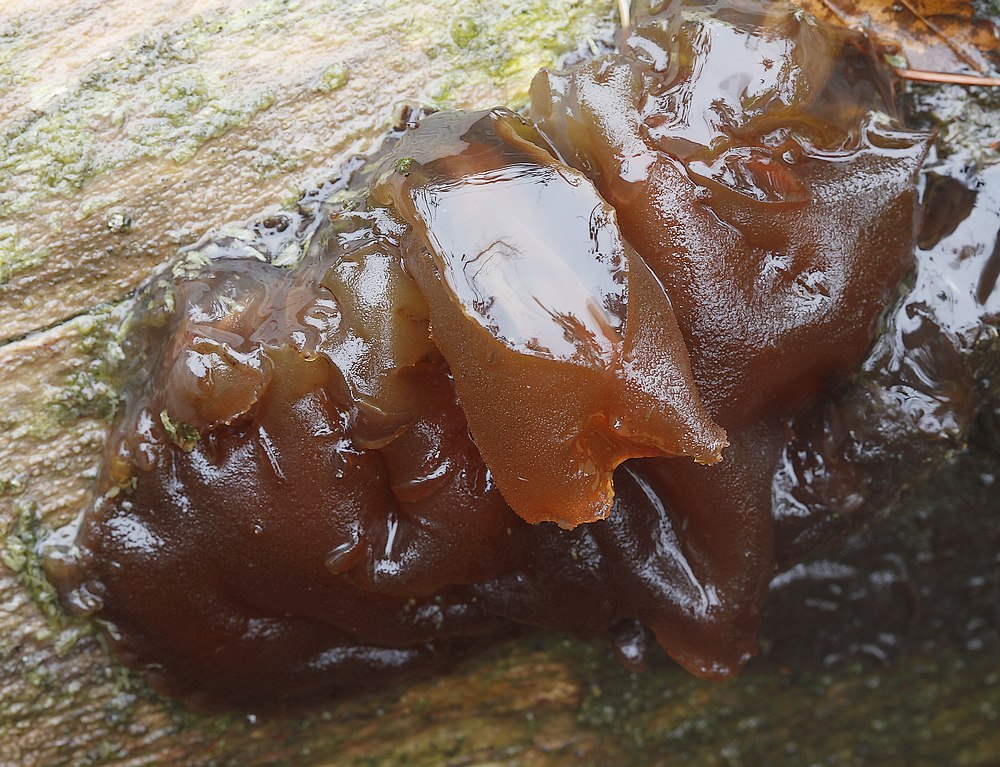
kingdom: Fungi
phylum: Basidiomycota
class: Tremellomycetes
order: Tremellales
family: Exidiaceae
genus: Exidia
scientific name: Exidia
